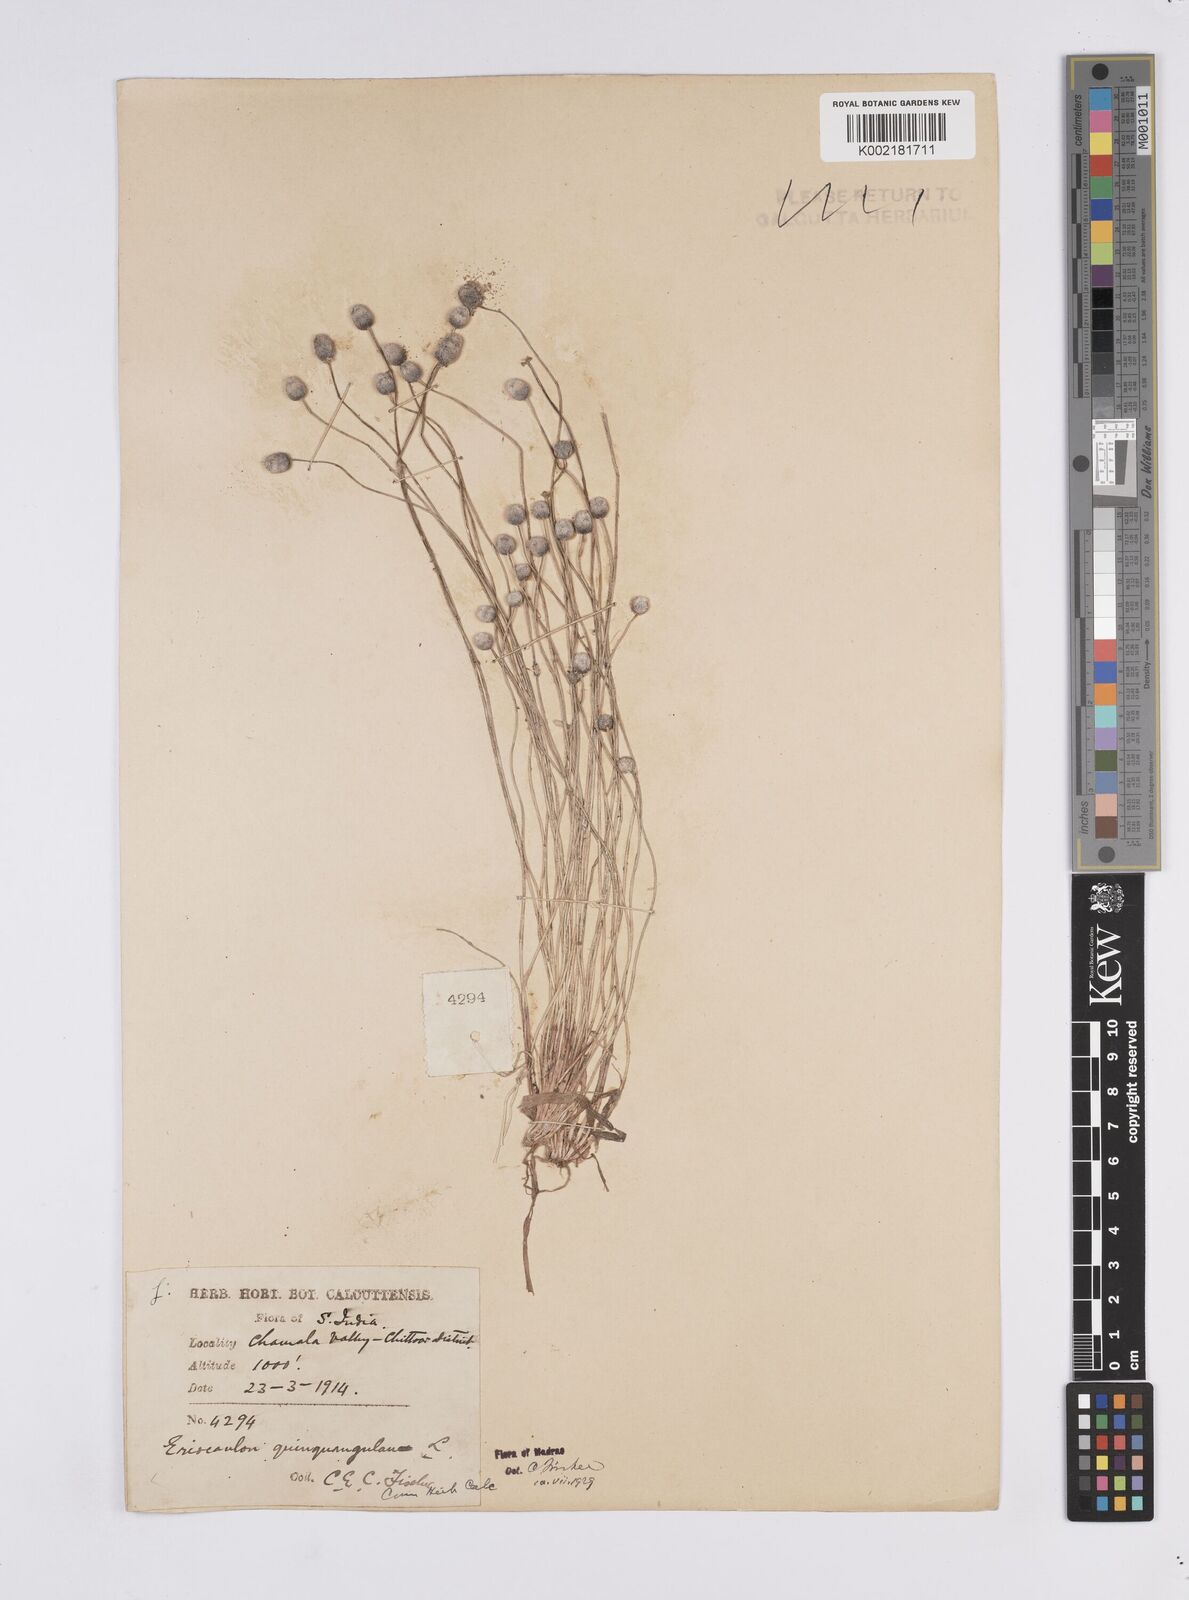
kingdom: Plantae
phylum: Tracheophyta
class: Liliopsida
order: Poales
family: Eriocaulaceae
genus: Eriocaulon
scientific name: Eriocaulon quinquangulare
